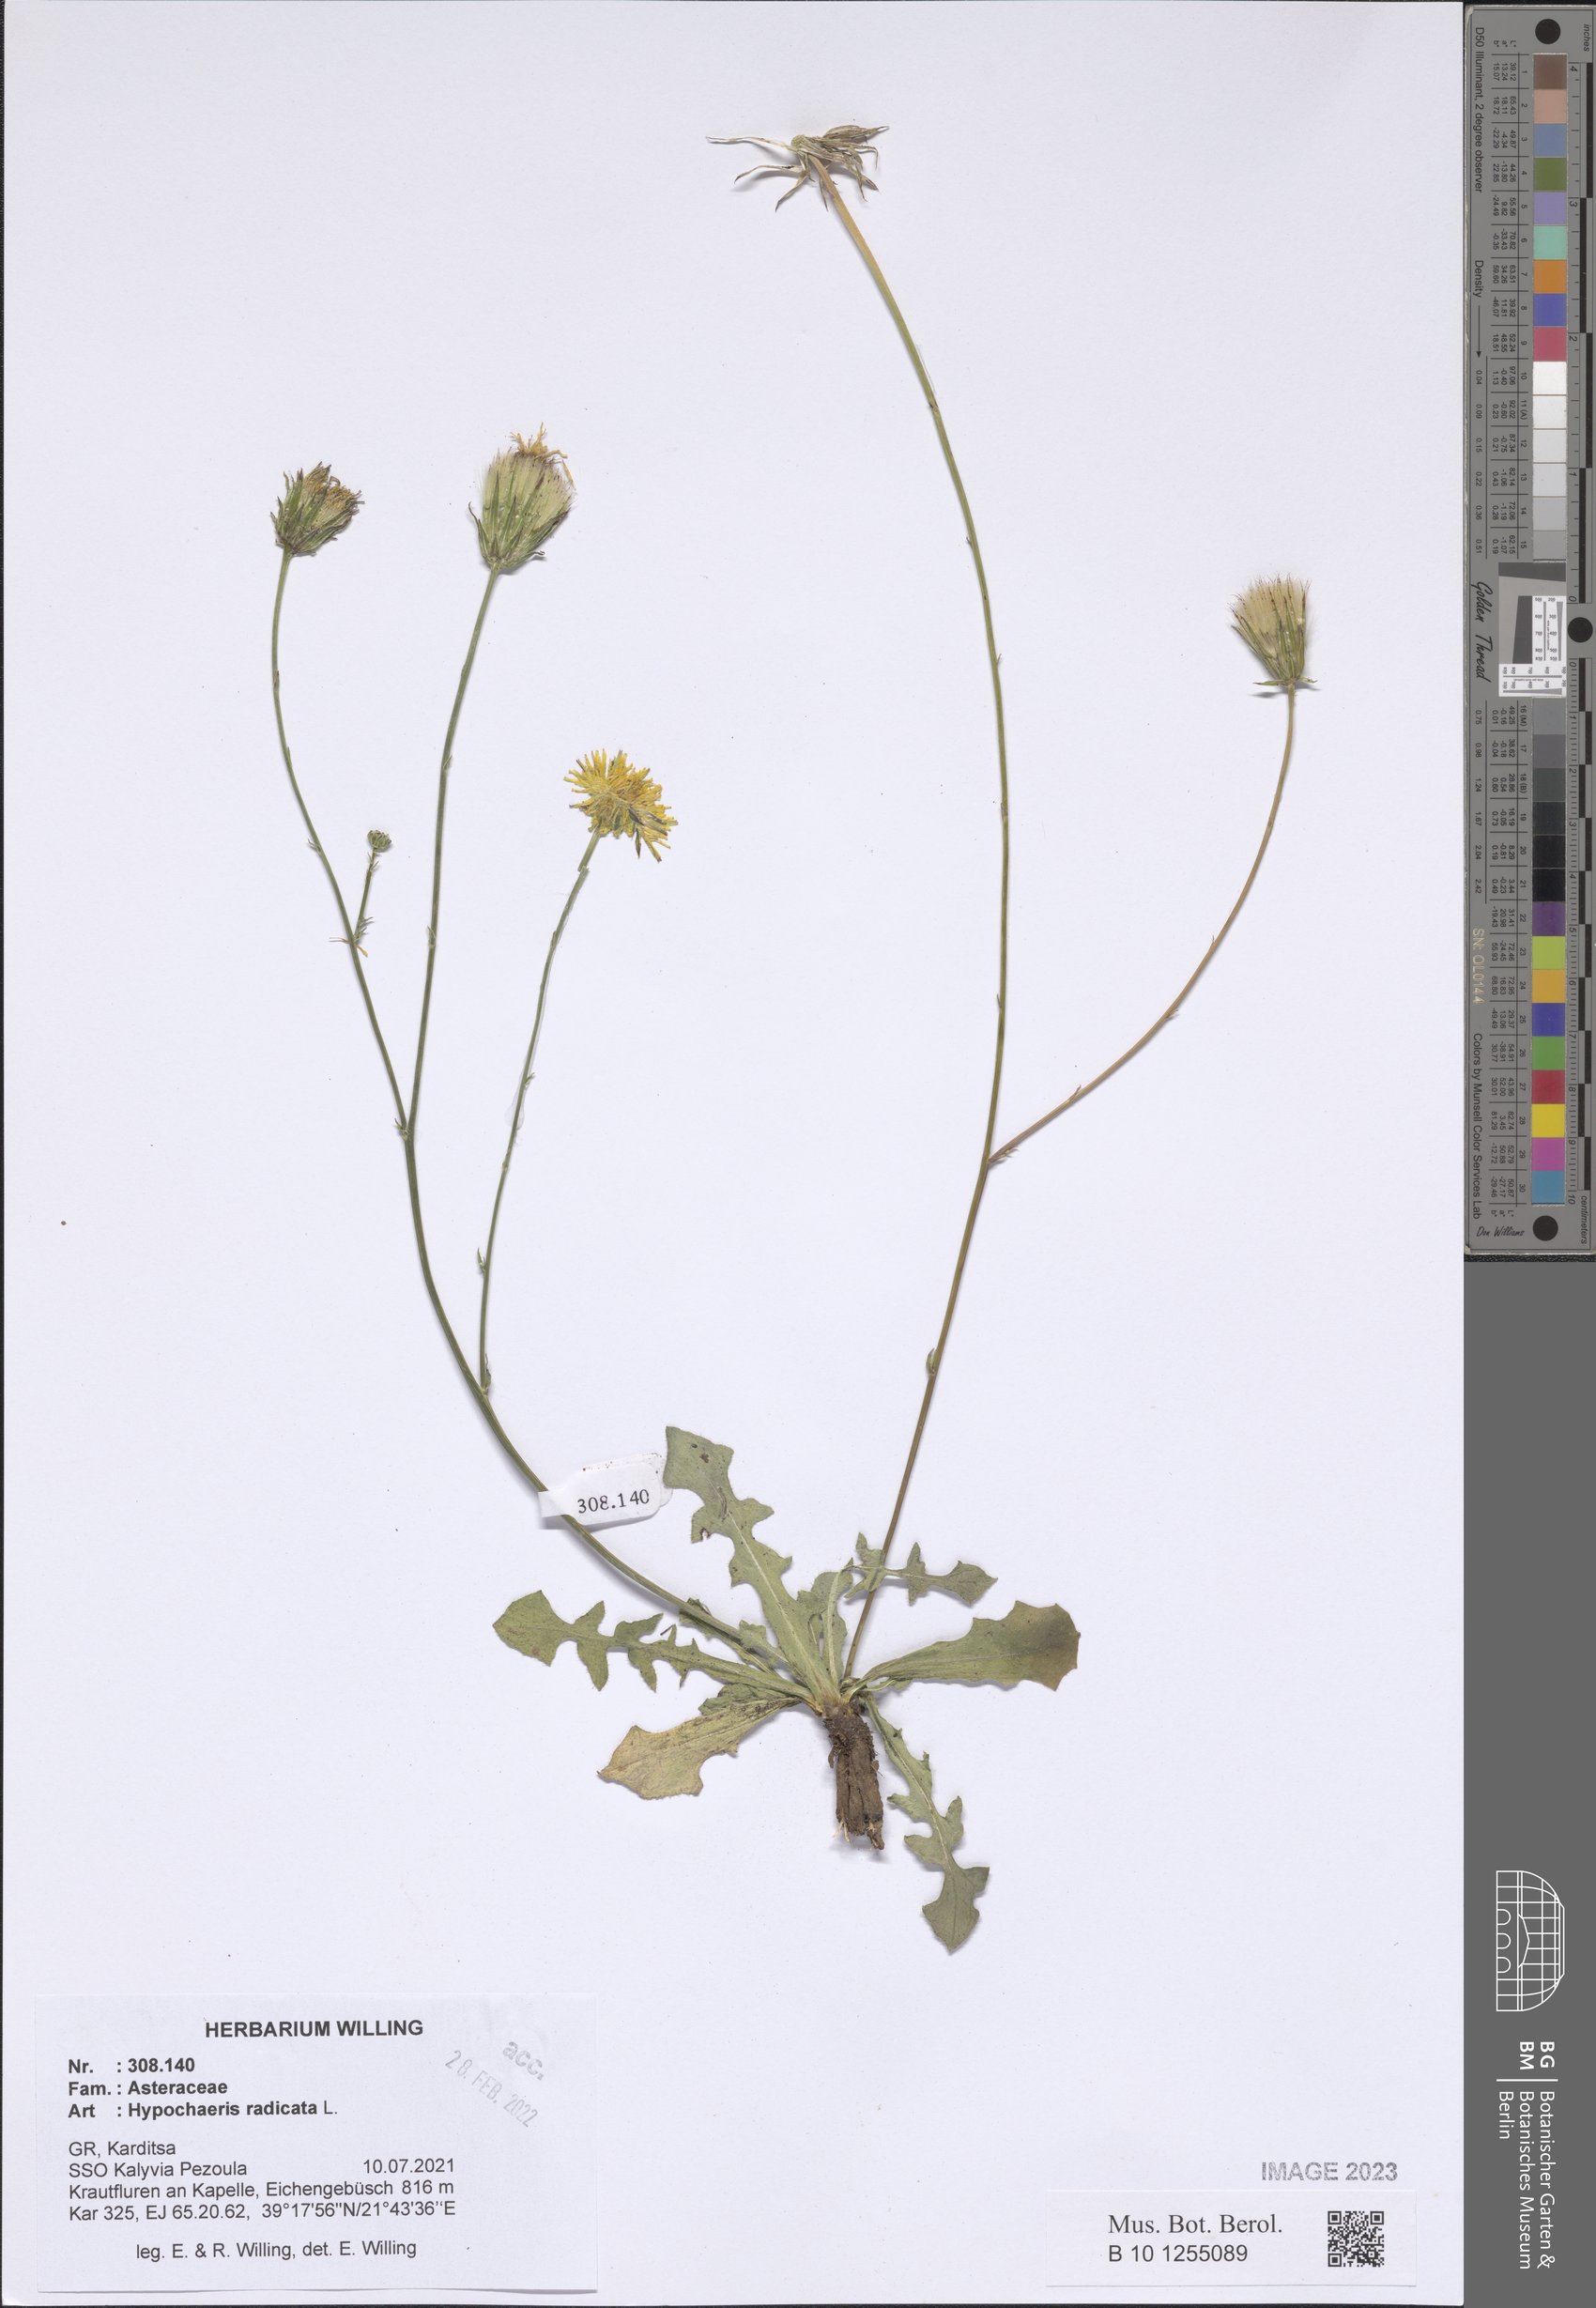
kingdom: Plantae
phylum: Tracheophyta
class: Magnoliopsida
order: Asterales
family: Asteraceae
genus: Hypochaeris
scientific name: Hypochaeris radicata
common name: Flatweed
